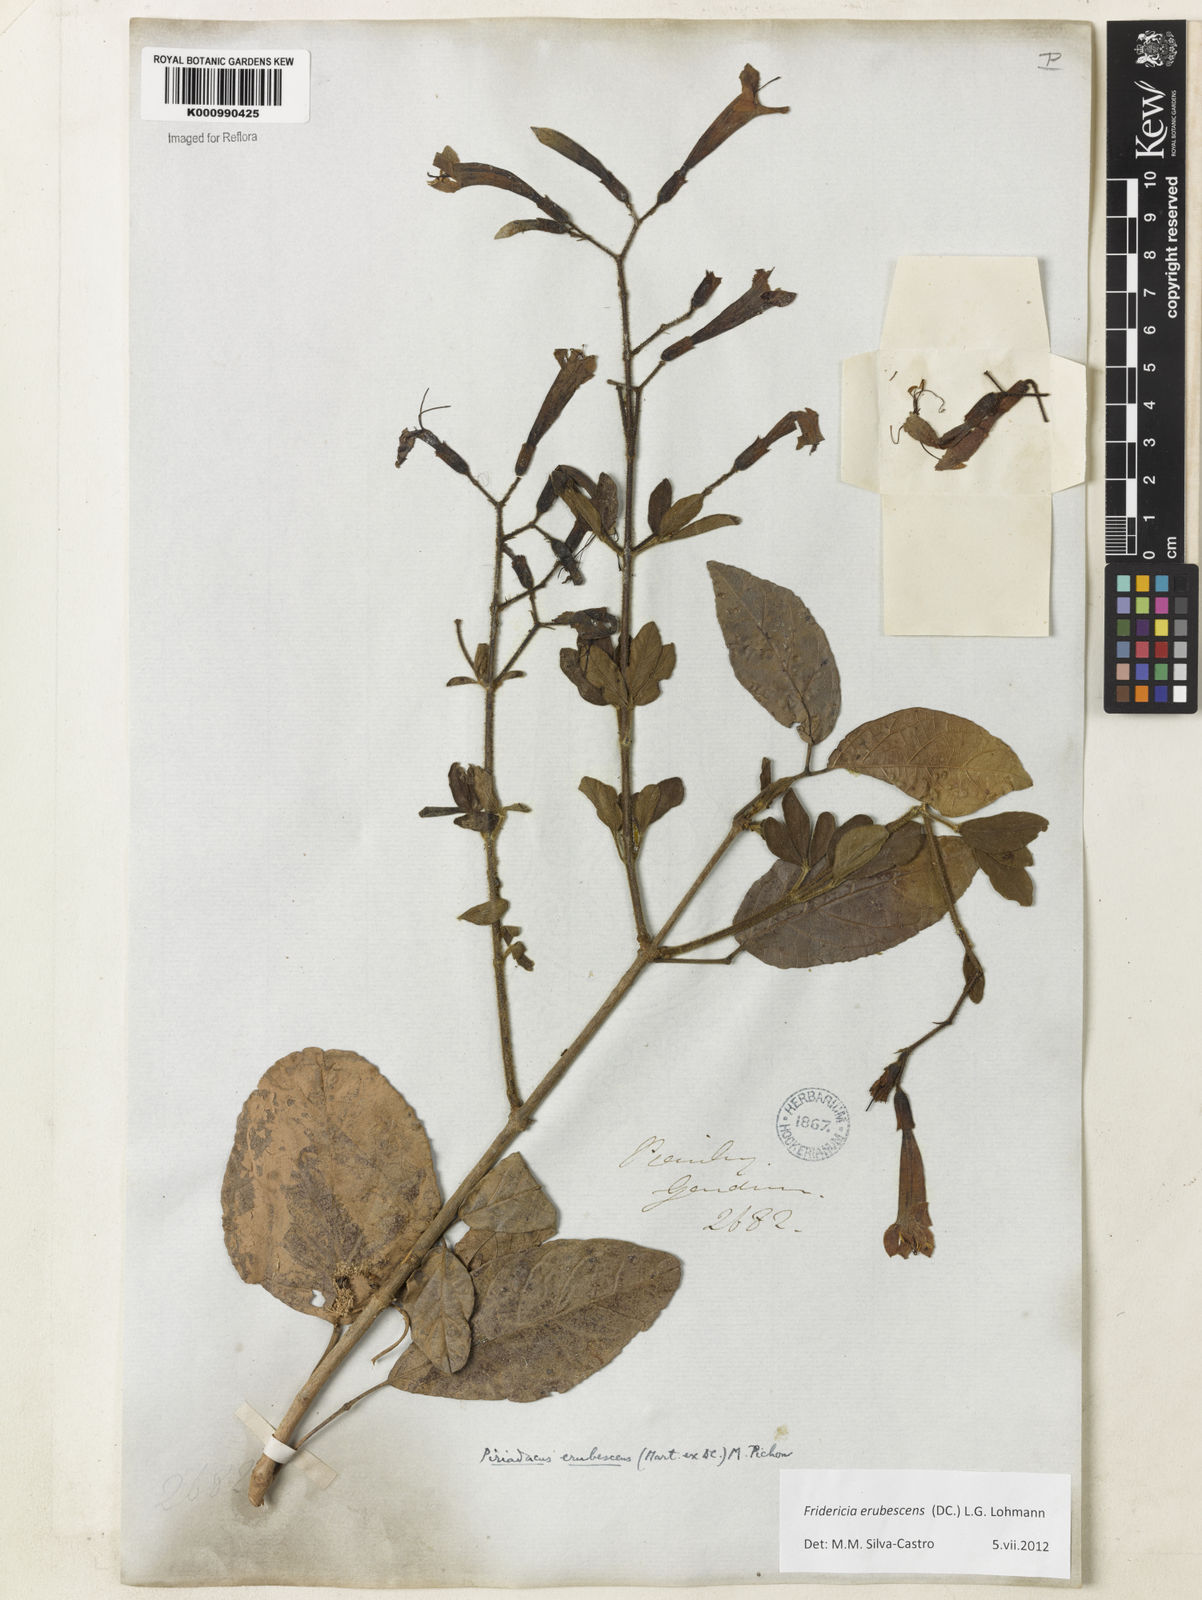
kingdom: Plantae
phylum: Tracheophyta
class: Magnoliopsida
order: Lamiales
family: Bignoniaceae
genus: Fridericia
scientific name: Fridericia erubescens
